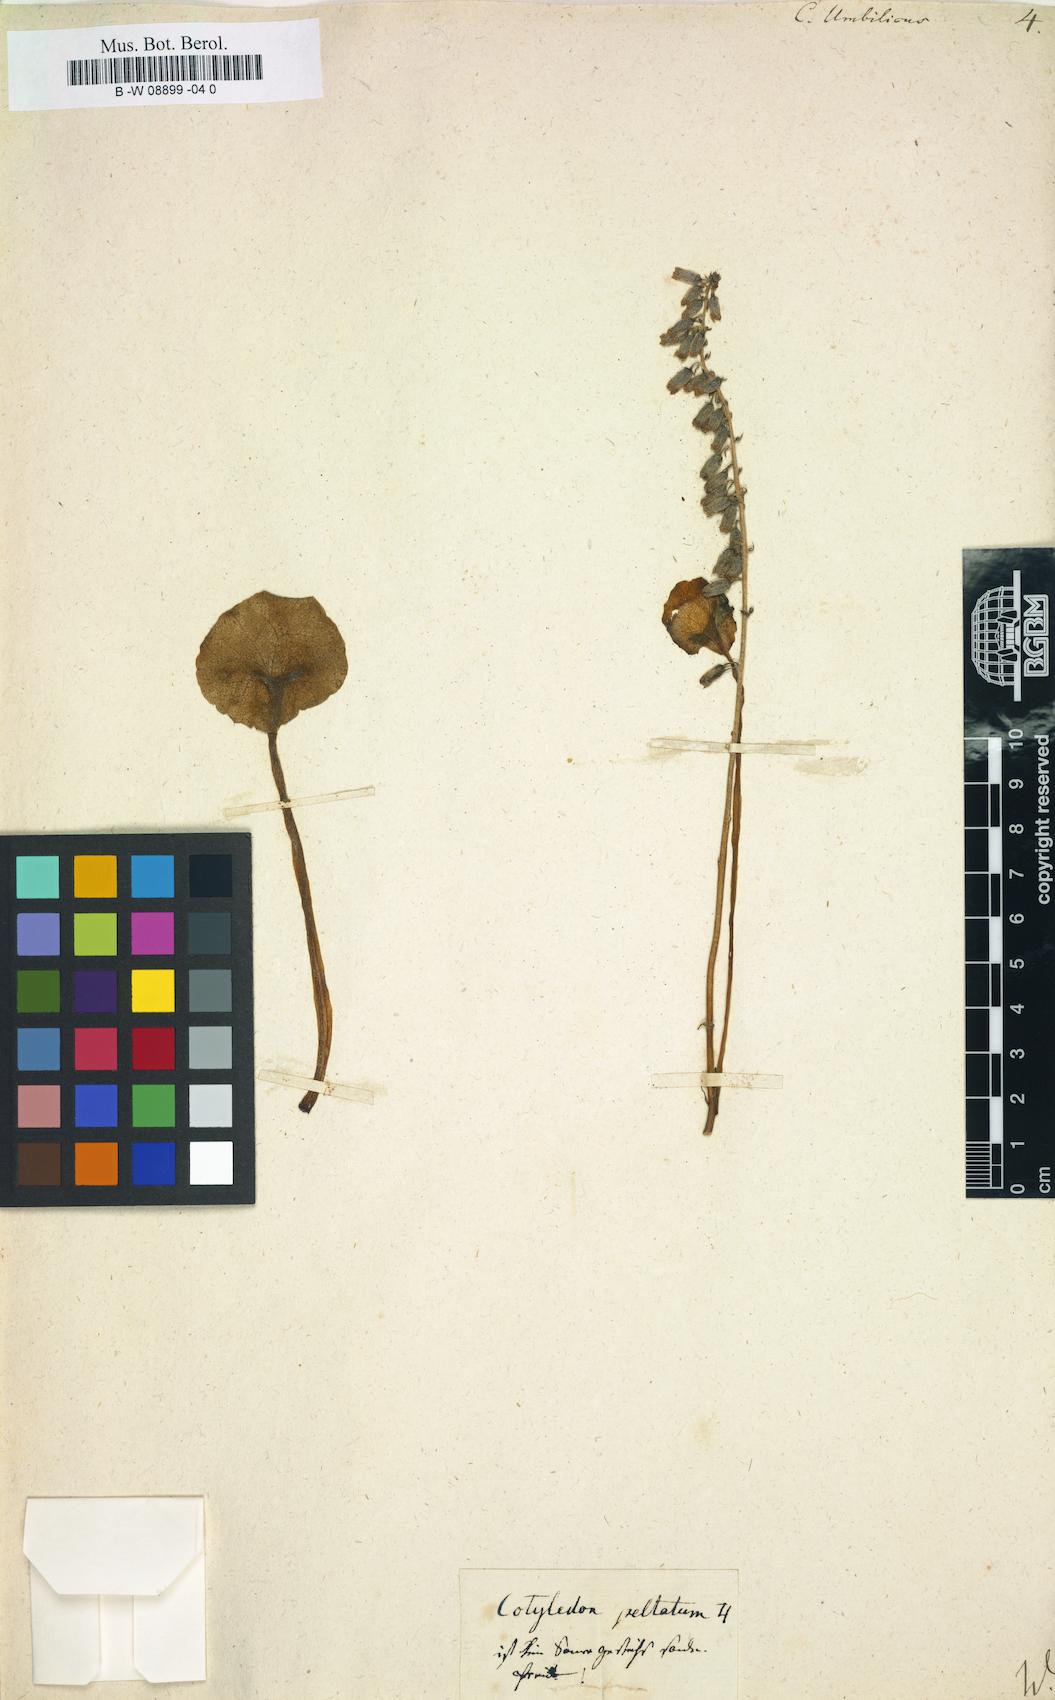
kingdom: Plantae
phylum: Tracheophyta
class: Magnoliopsida
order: Saxifragales
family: Crassulaceae
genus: Umbilicus
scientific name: Umbilicus rupestris
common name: Navelwort
